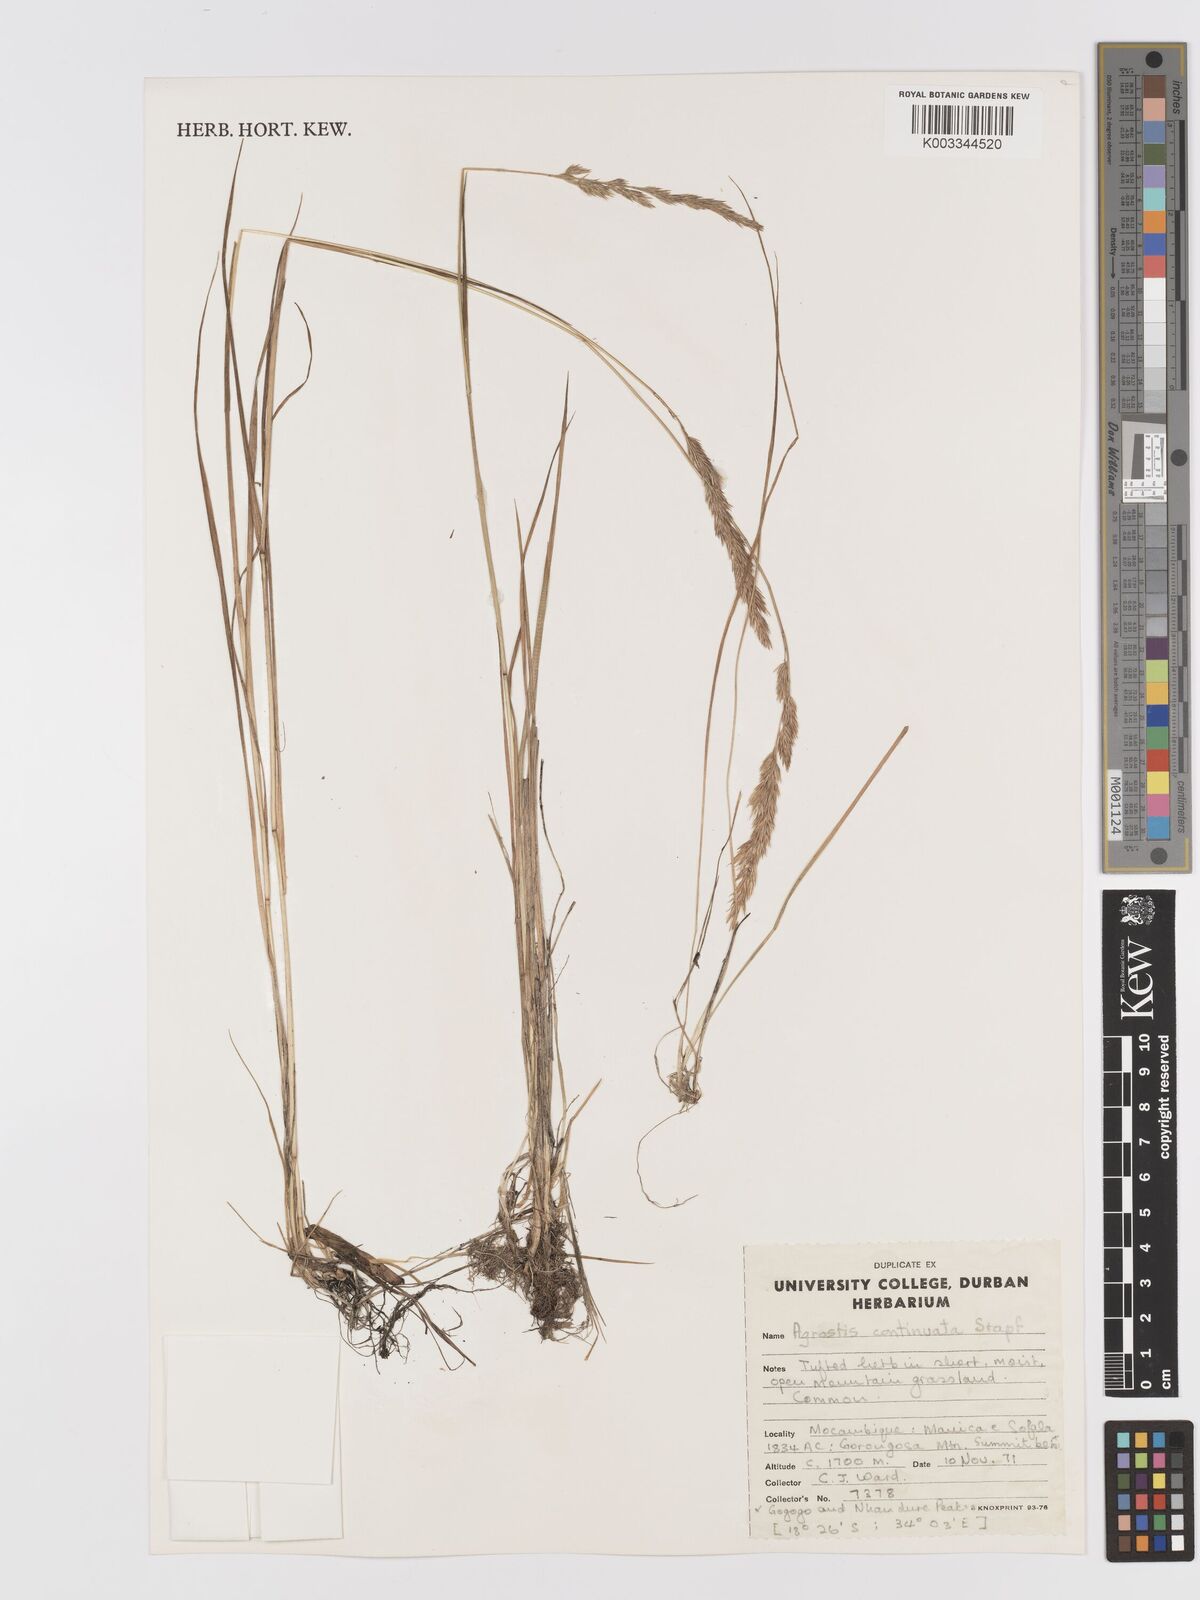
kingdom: Plantae
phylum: Tracheophyta
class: Liliopsida
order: Poales
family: Poaceae
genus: Agrostis
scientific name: Agrostis continuata
